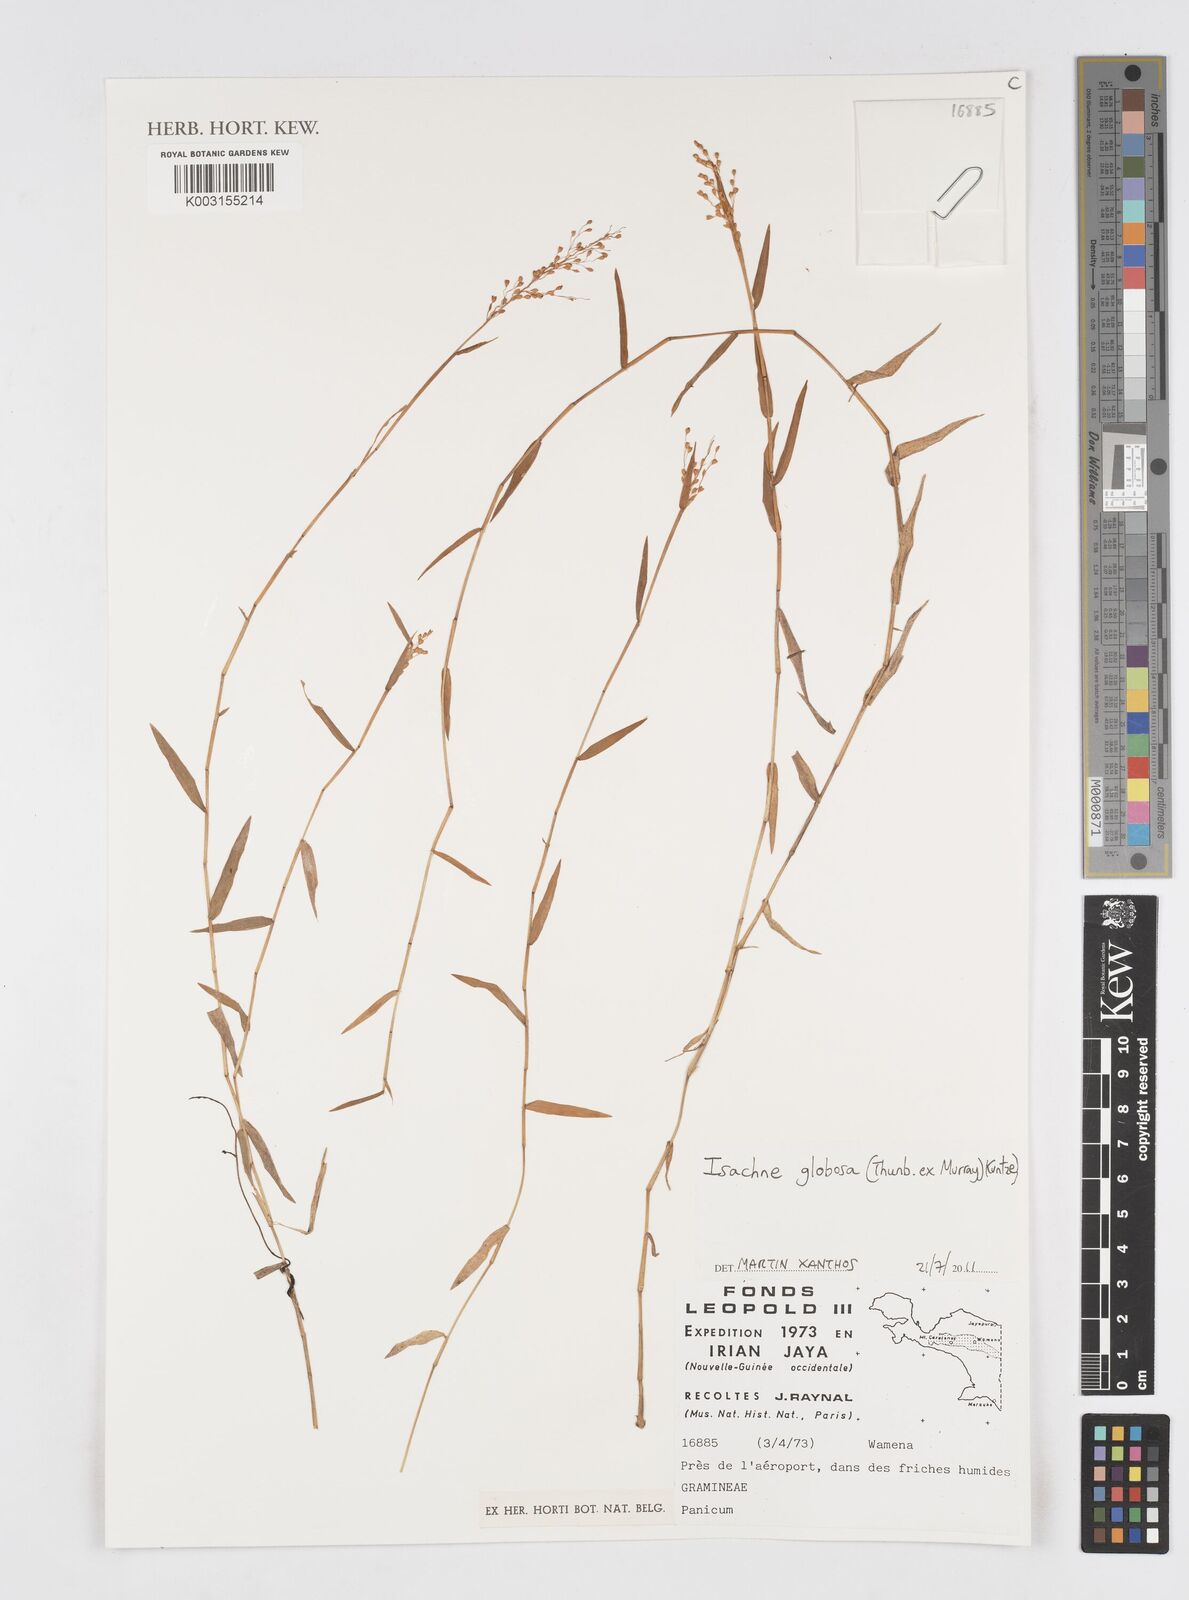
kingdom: Plantae
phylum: Tracheophyta
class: Liliopsida
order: Poales
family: Poaceae
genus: Isachne
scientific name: Isachne globosa
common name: Swamp millet
